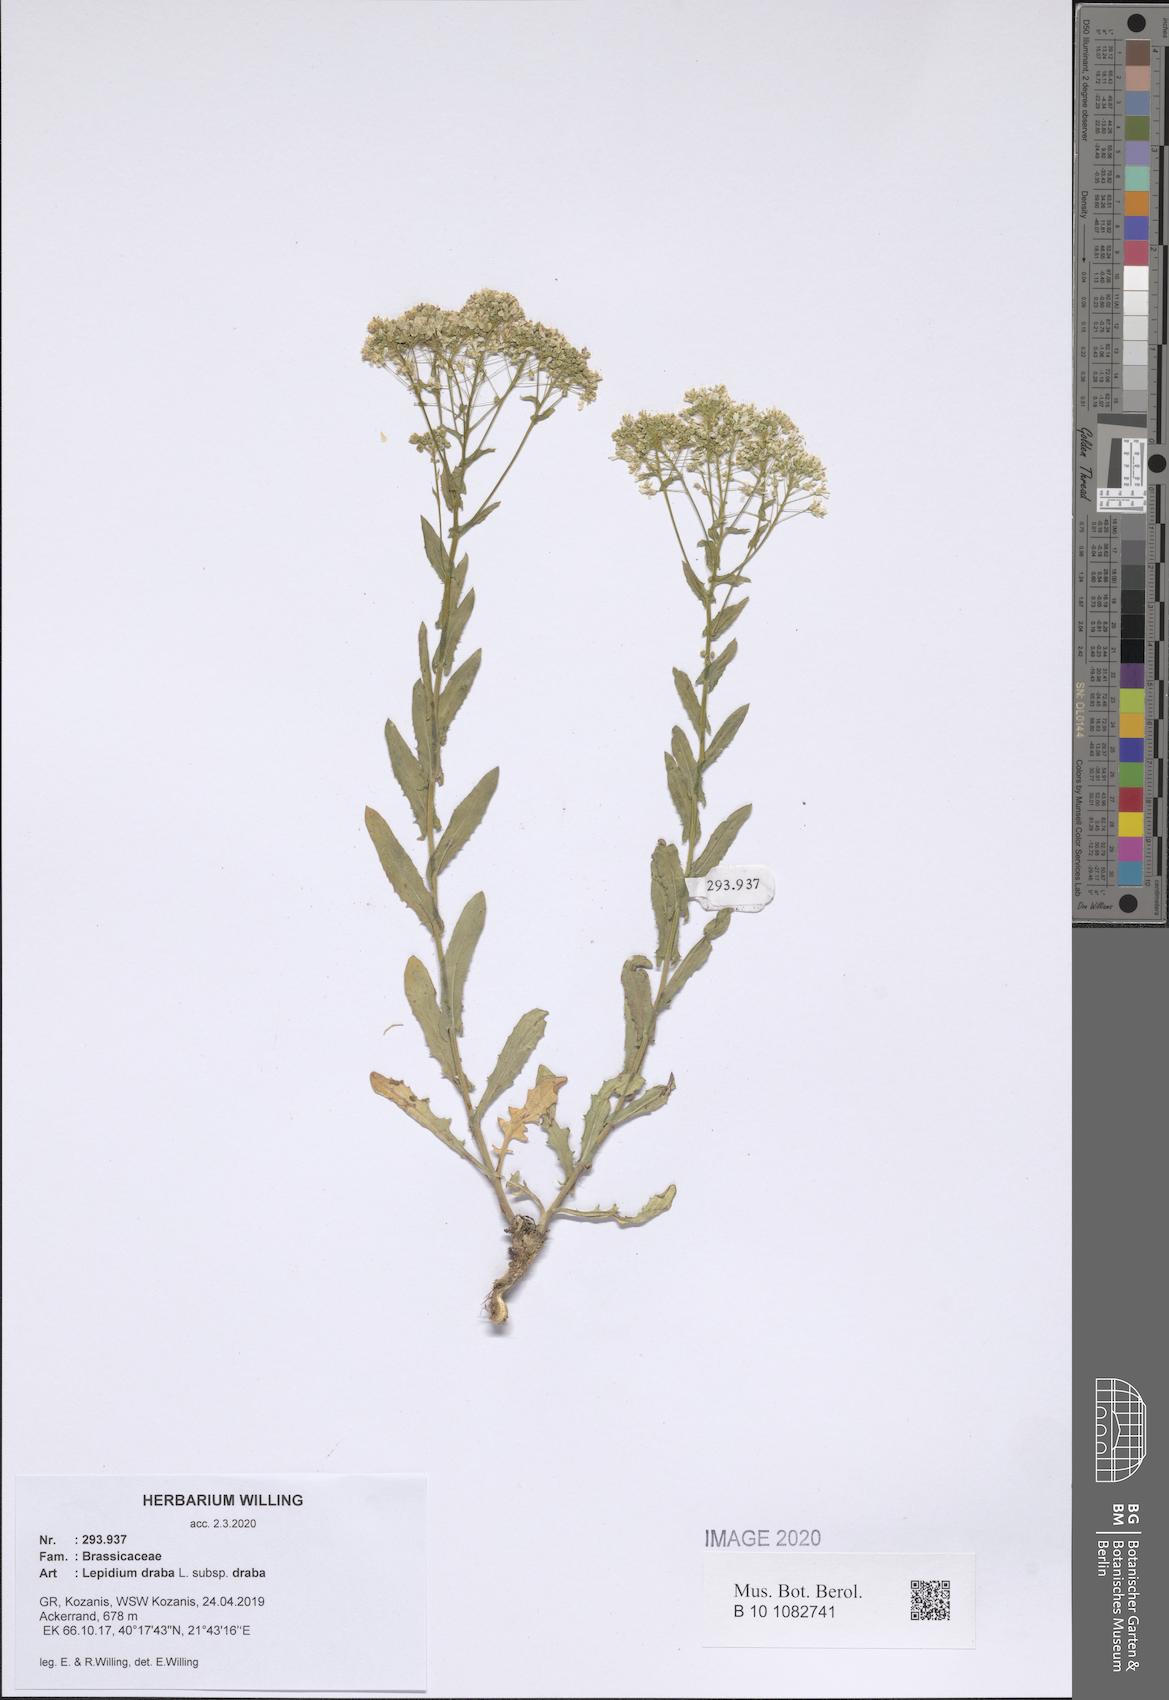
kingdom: Plantae
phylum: Tracheophyta
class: Magnoliopsida
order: Brassicales
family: Brassicaceae
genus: Lepidium
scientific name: Lepidium draba
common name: Hoary cress
